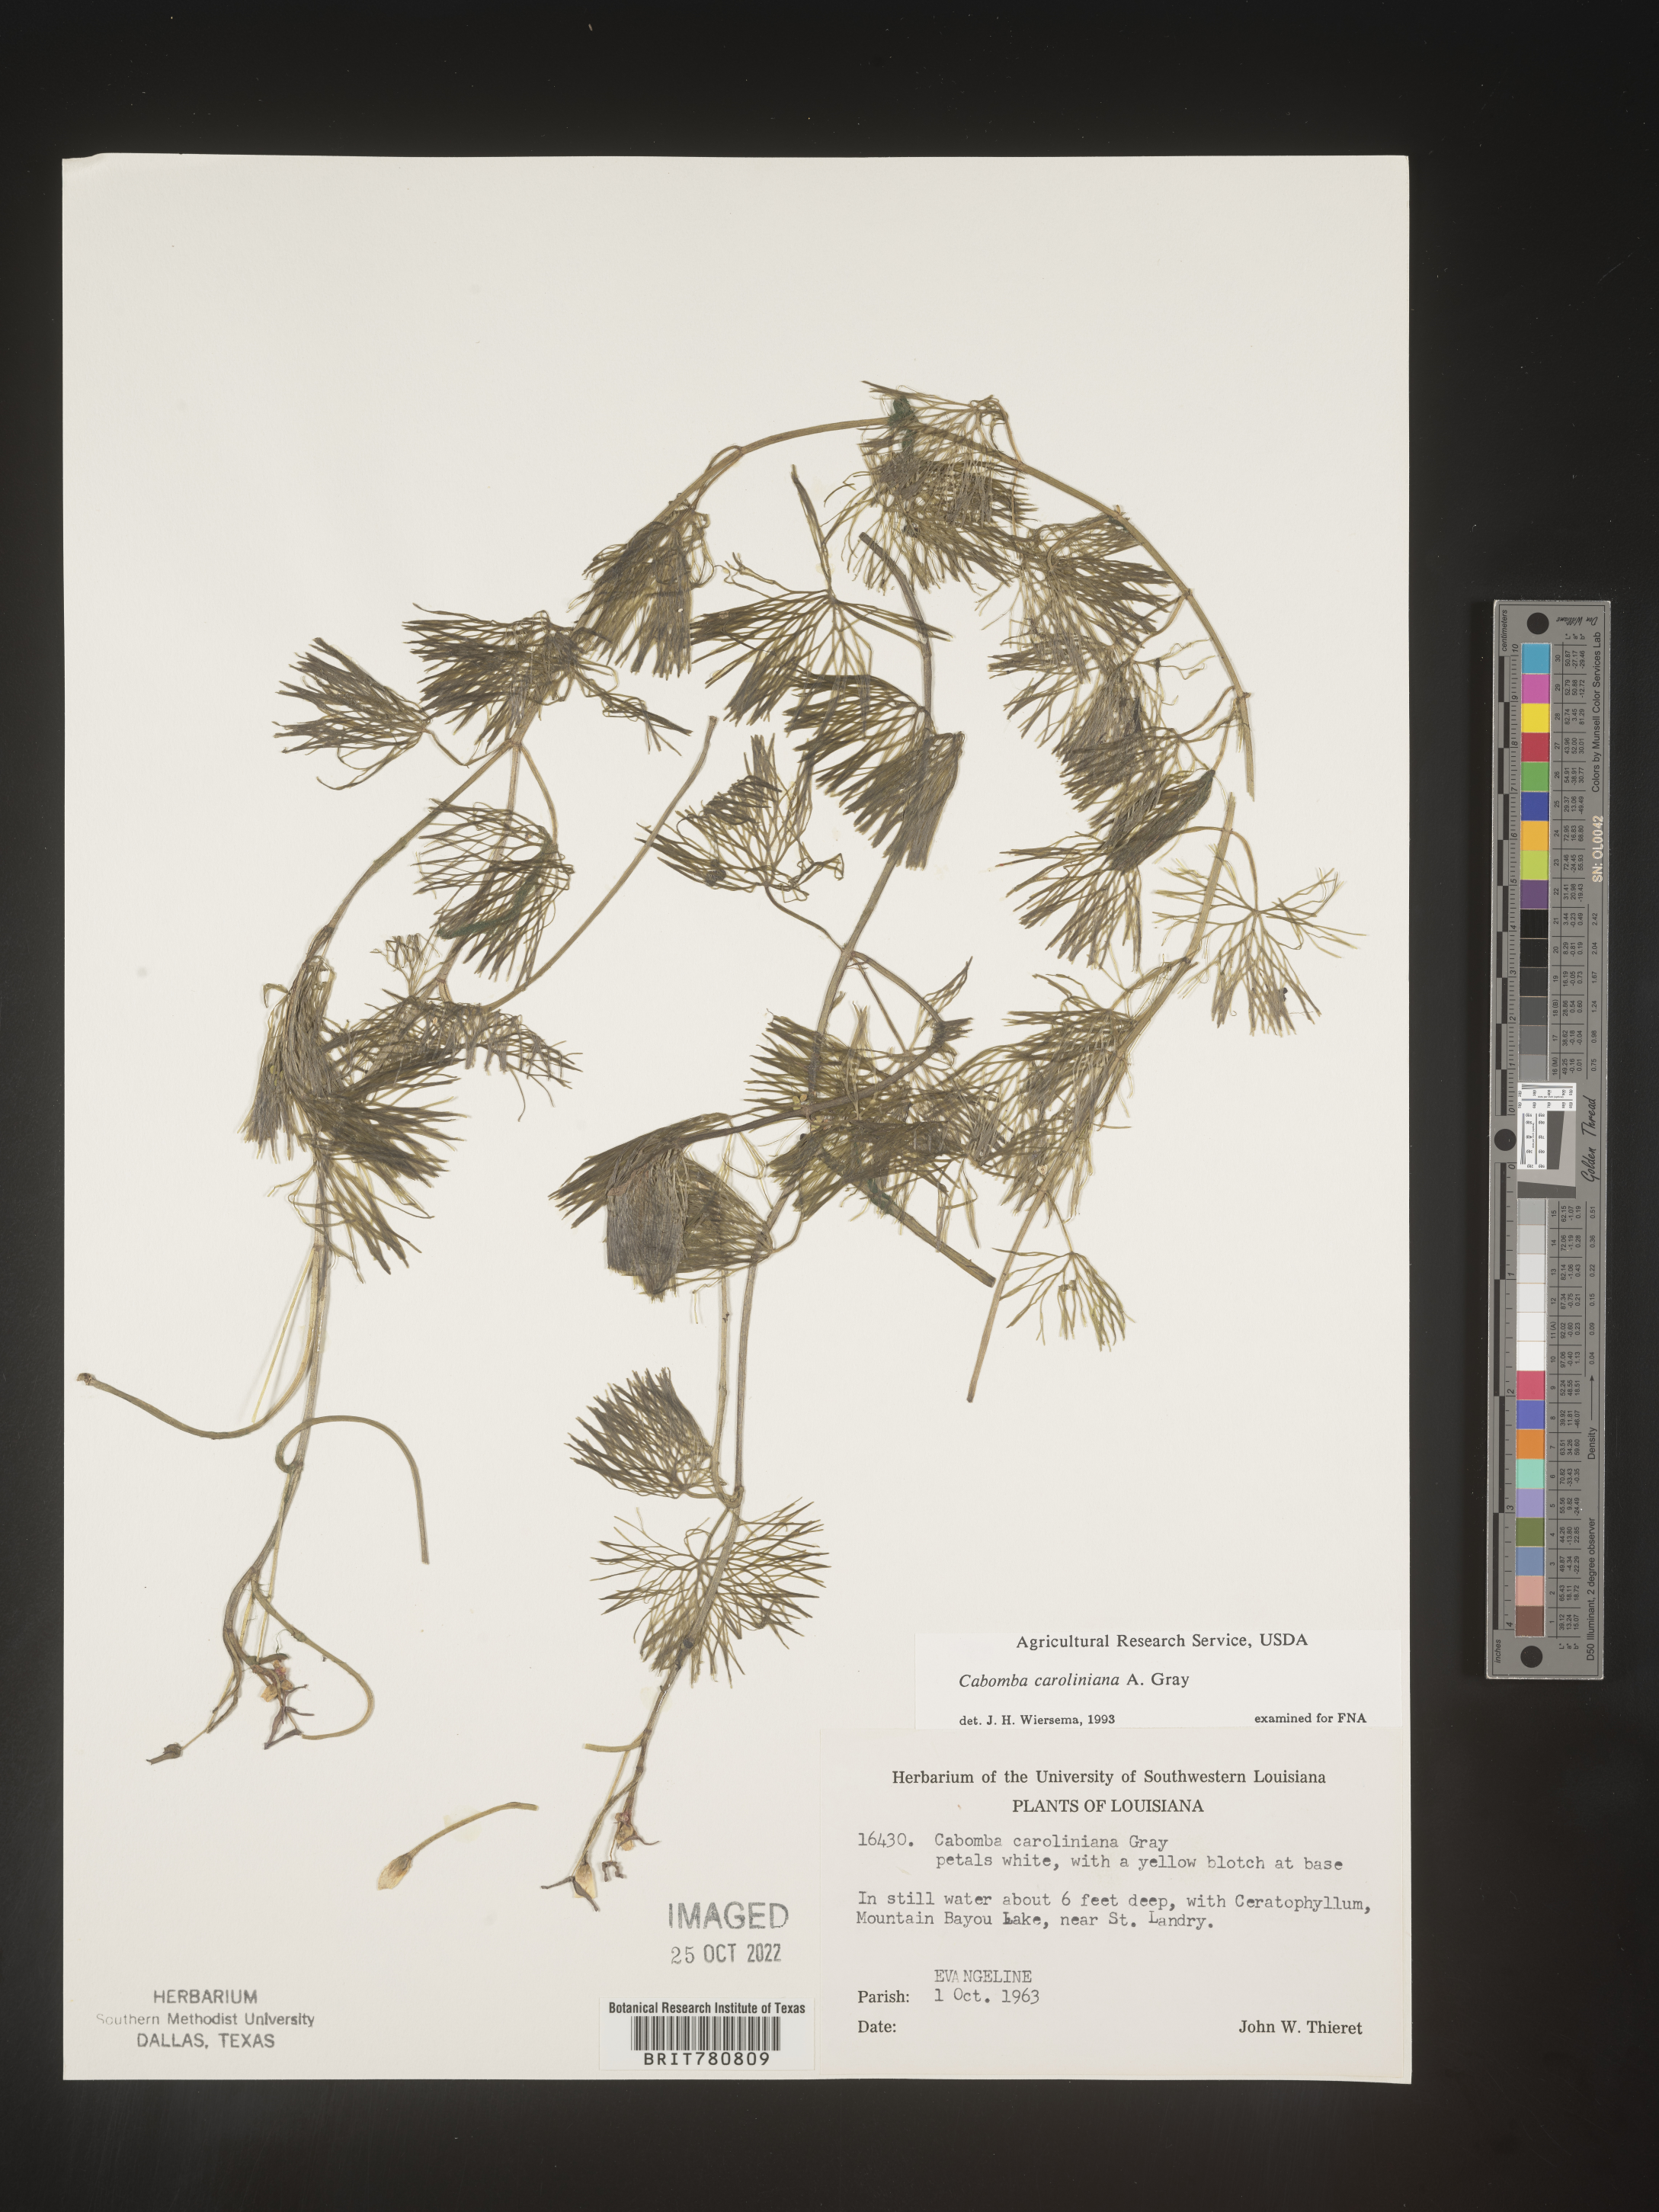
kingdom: Plantae
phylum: Tracheophyta
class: Magnoliopsida
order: Nymphaeales
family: Cabombaceae
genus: Cabomba
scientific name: Cabomba
